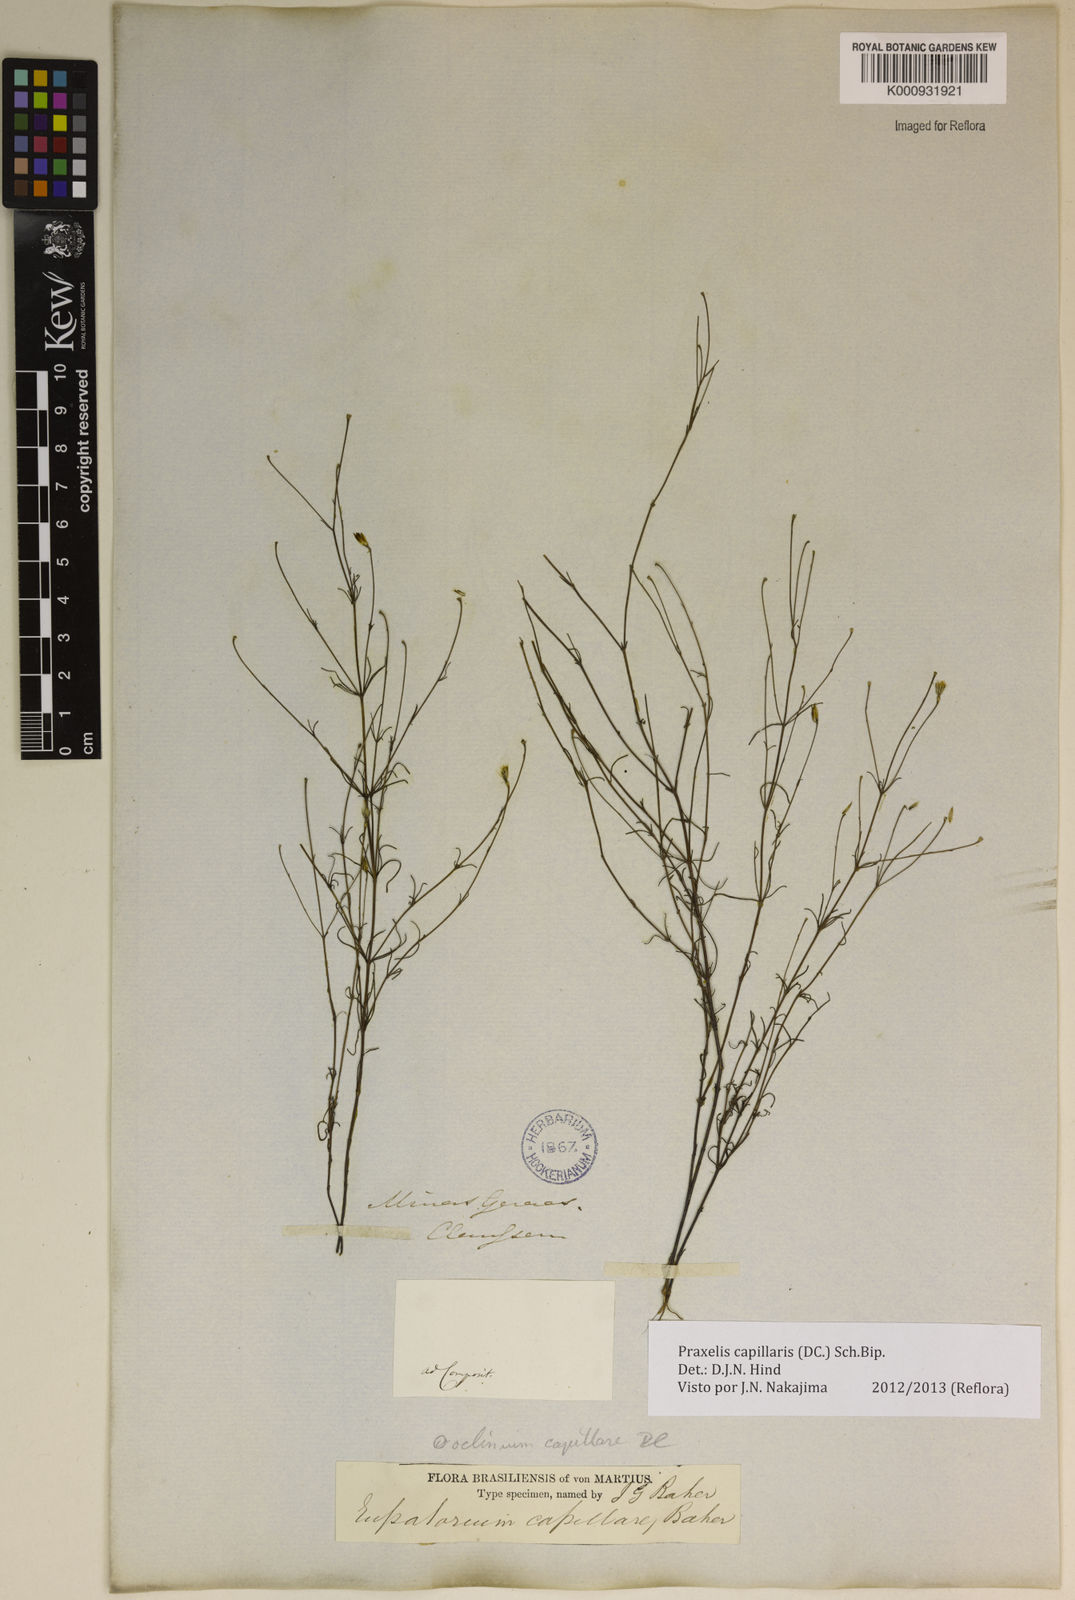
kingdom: Plantae
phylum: Tracheophyta
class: Magnoliopsida
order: Asterales
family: Asteraceae
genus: Praxelis
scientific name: Praxelis capillaris
